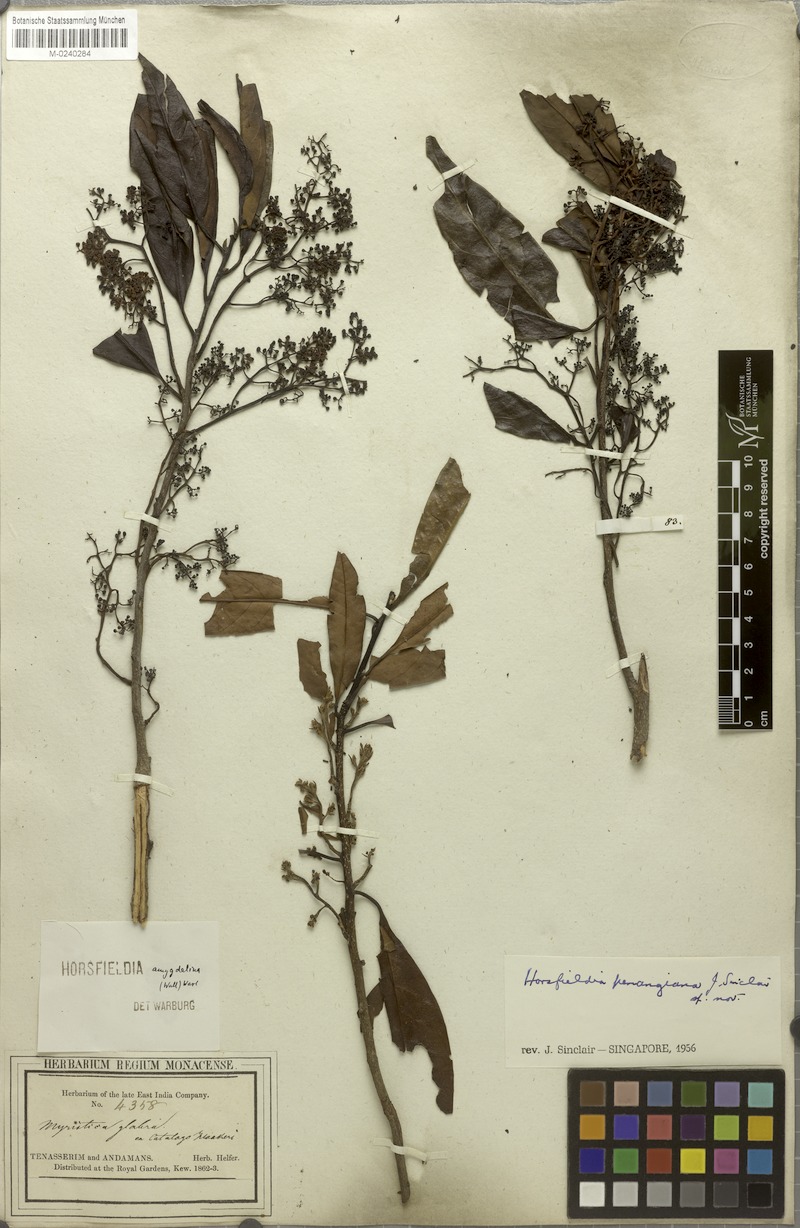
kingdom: Plantae
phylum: Tracheophyta
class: Magnoliopsida
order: Magnoliales
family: Myristicaceae
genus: Horsfieldia
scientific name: Horsfieldia penangiana
